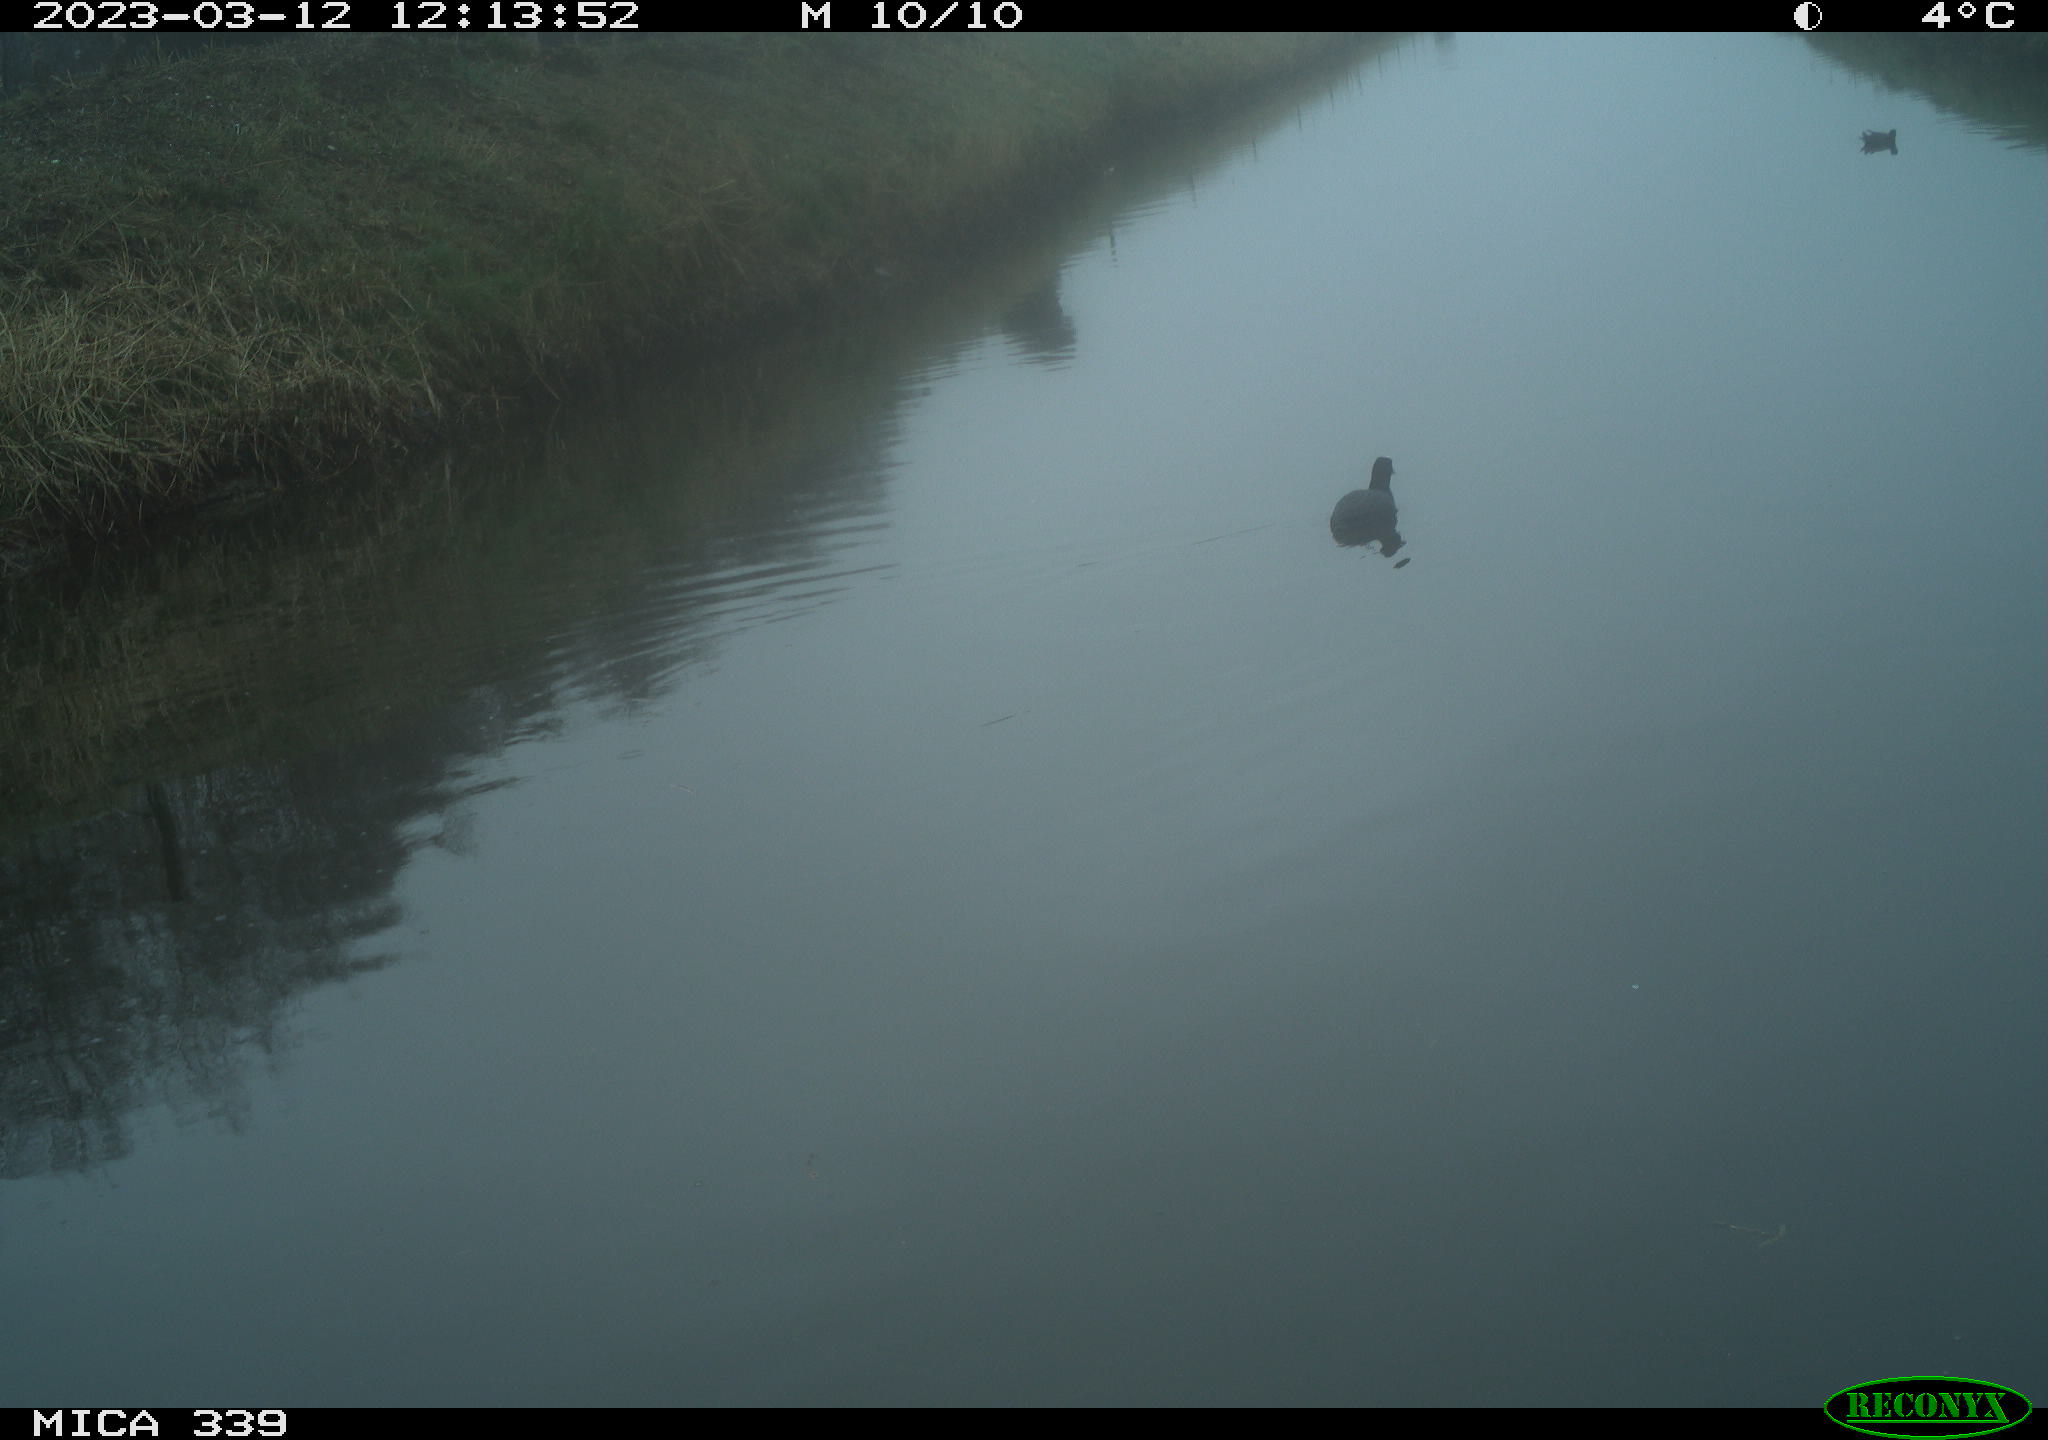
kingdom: Animalia
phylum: Chordata
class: Aves
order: Gruiformes
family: Rallidae
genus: Fulica
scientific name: Fulica atra
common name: Eurasian coot
